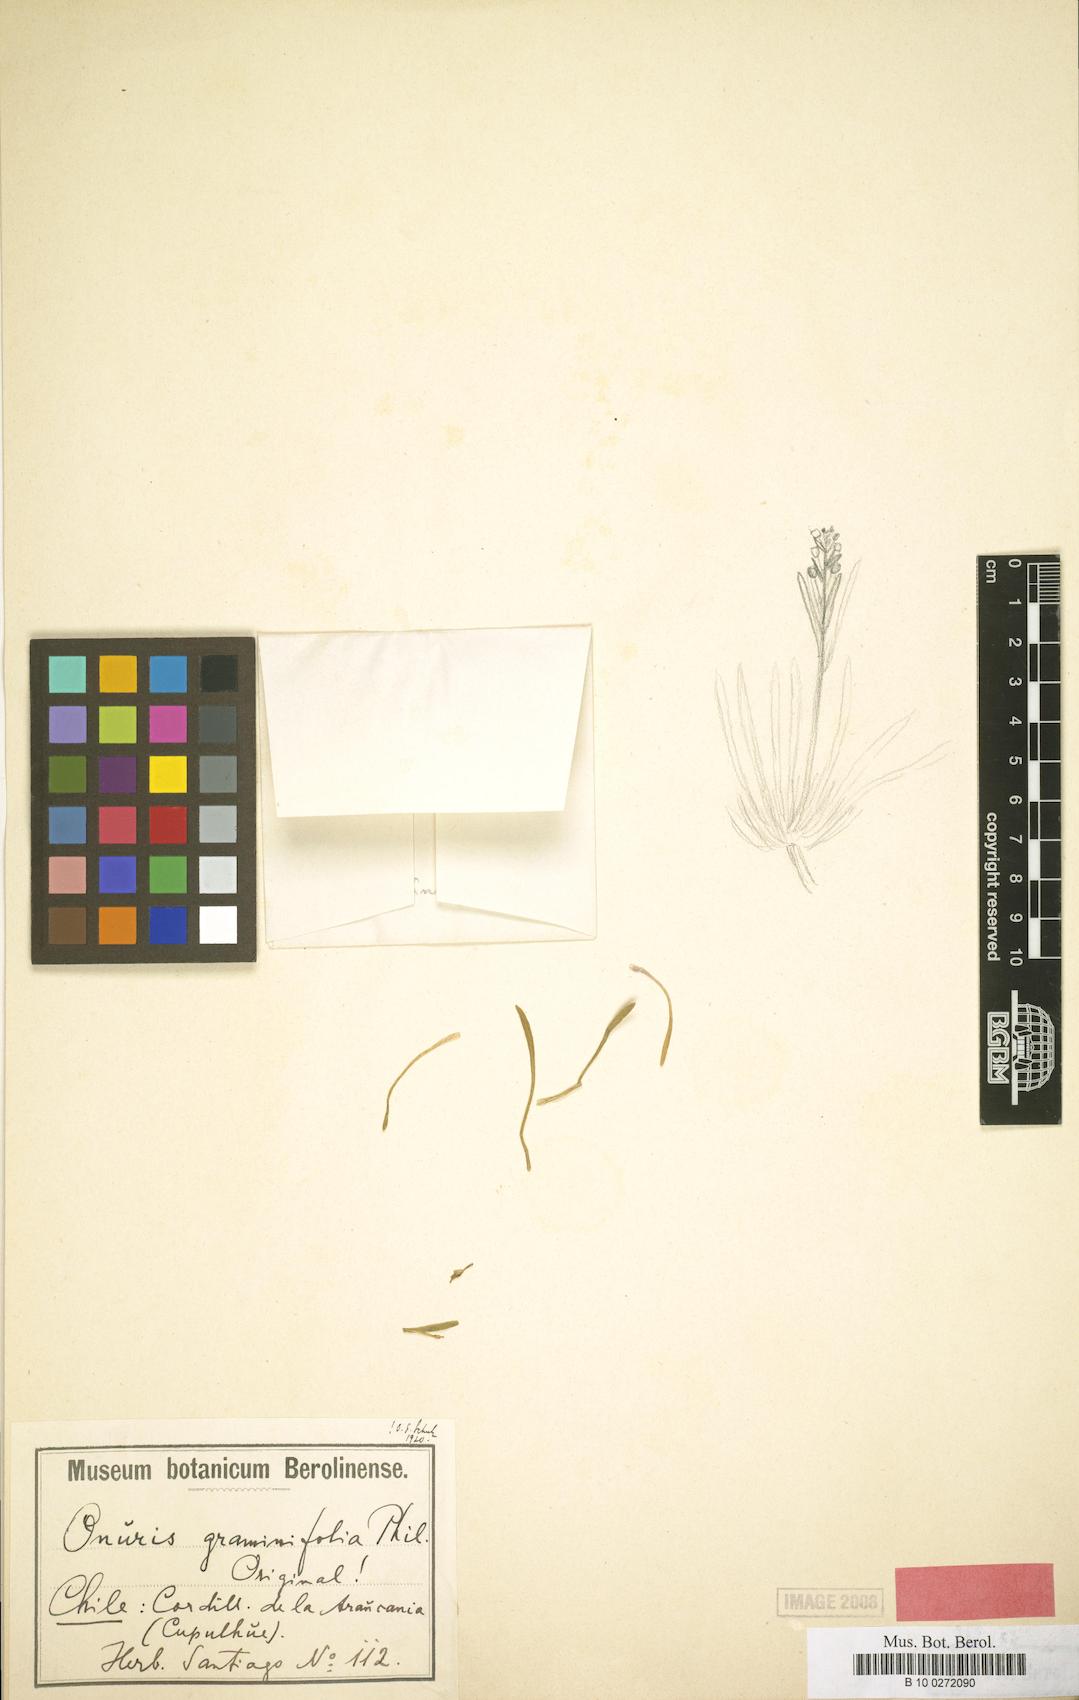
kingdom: Plantae
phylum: Tracheophyta
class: Magnoliopsida
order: Brassicales
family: Brassicaceae
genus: Onuris
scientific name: Onuris graminifolia
